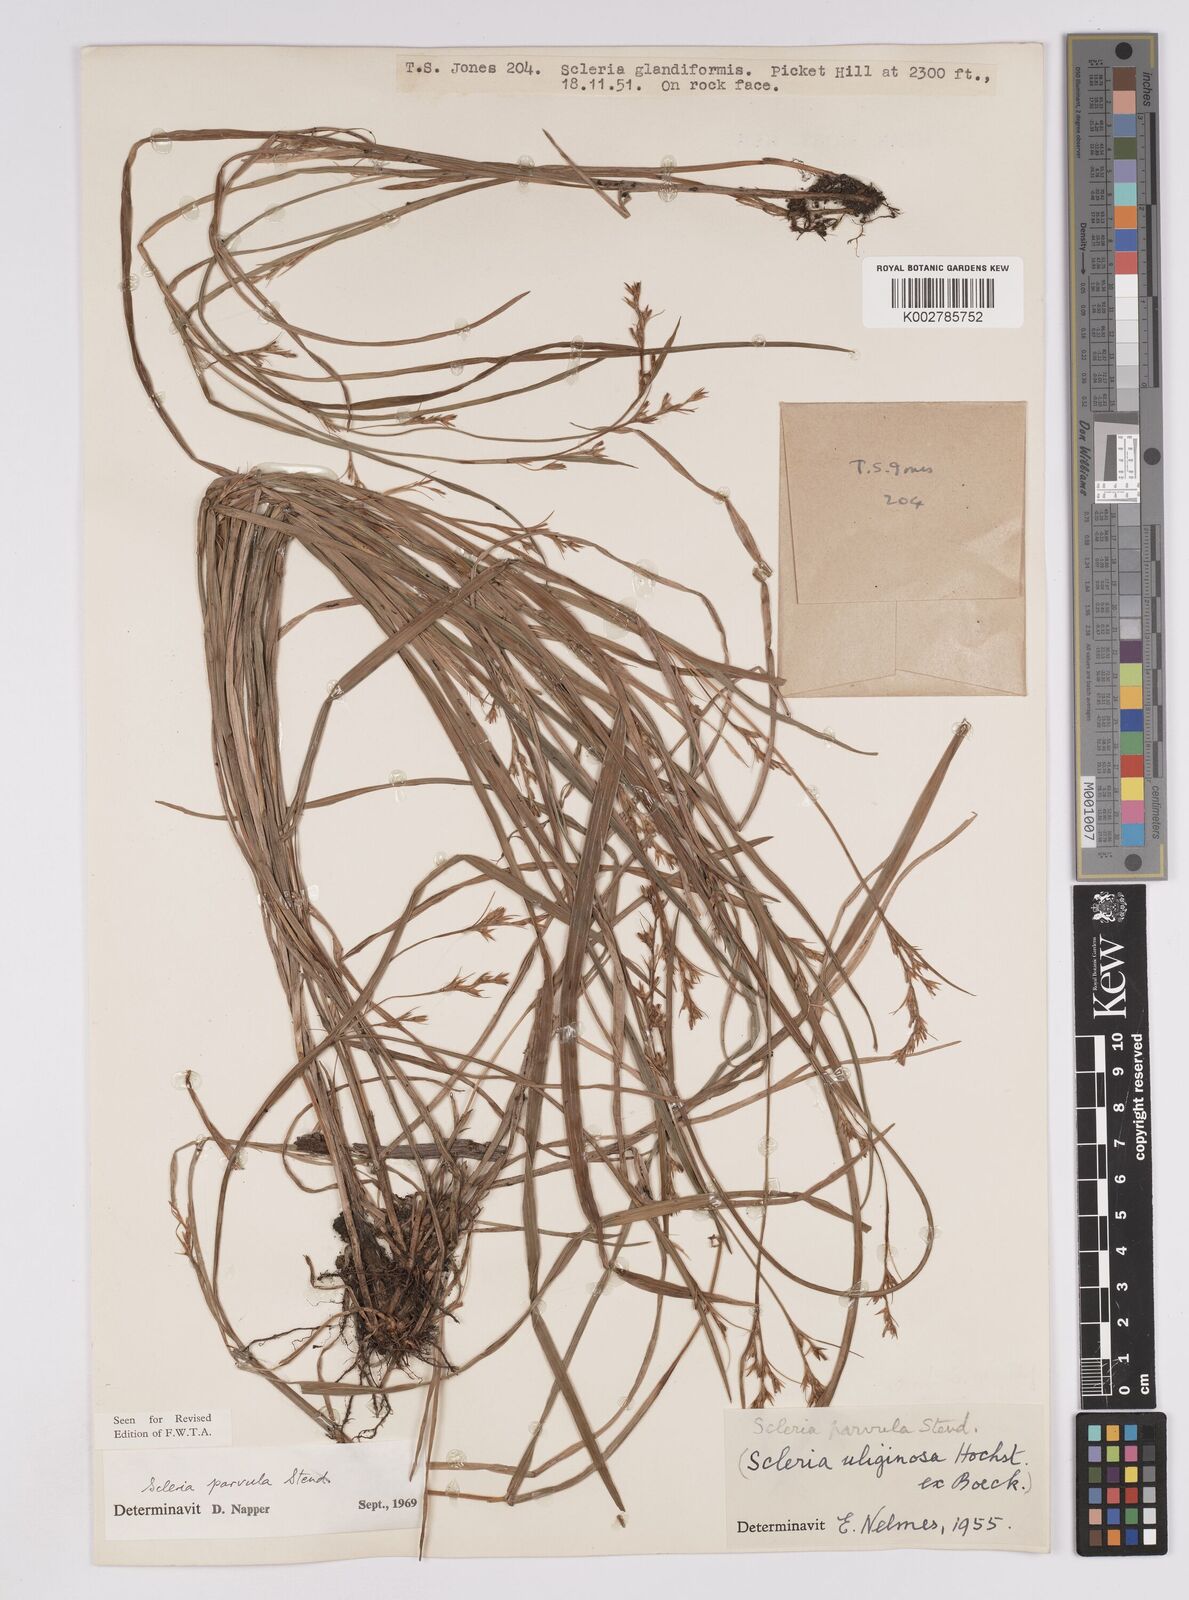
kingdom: Plantae
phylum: Tracheophyta
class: Liliopsida
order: Poales
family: Cyperaceae
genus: Scleria
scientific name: Scleria parvula
